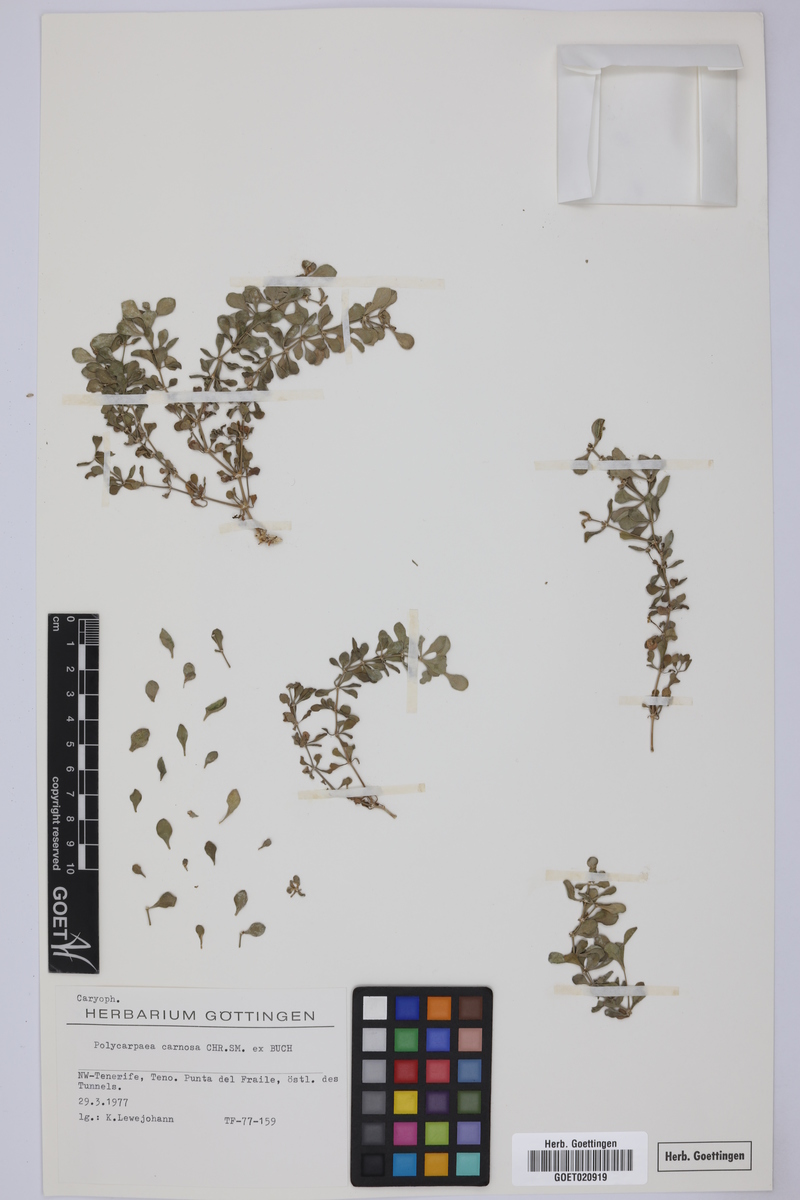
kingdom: Plantae
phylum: Tracheophyta
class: Magnoliopsida
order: Caryophyllales
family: Caryophyllaceae
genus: Polycarpaea
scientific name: Polycarpaea carnosa
